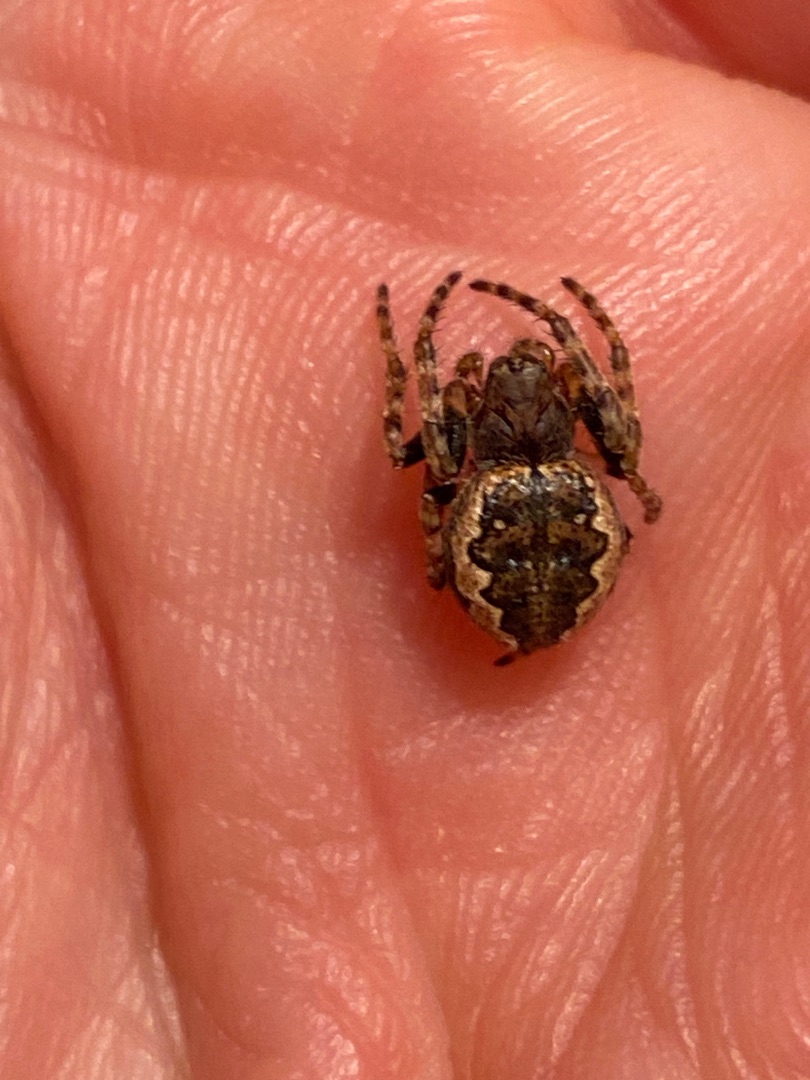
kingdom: Animalia
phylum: Arthropoda
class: Arachnida
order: Araneae
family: Araneidae
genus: Nuctenea
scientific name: Nuctenea umbratica
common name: Flad hjulspinder
